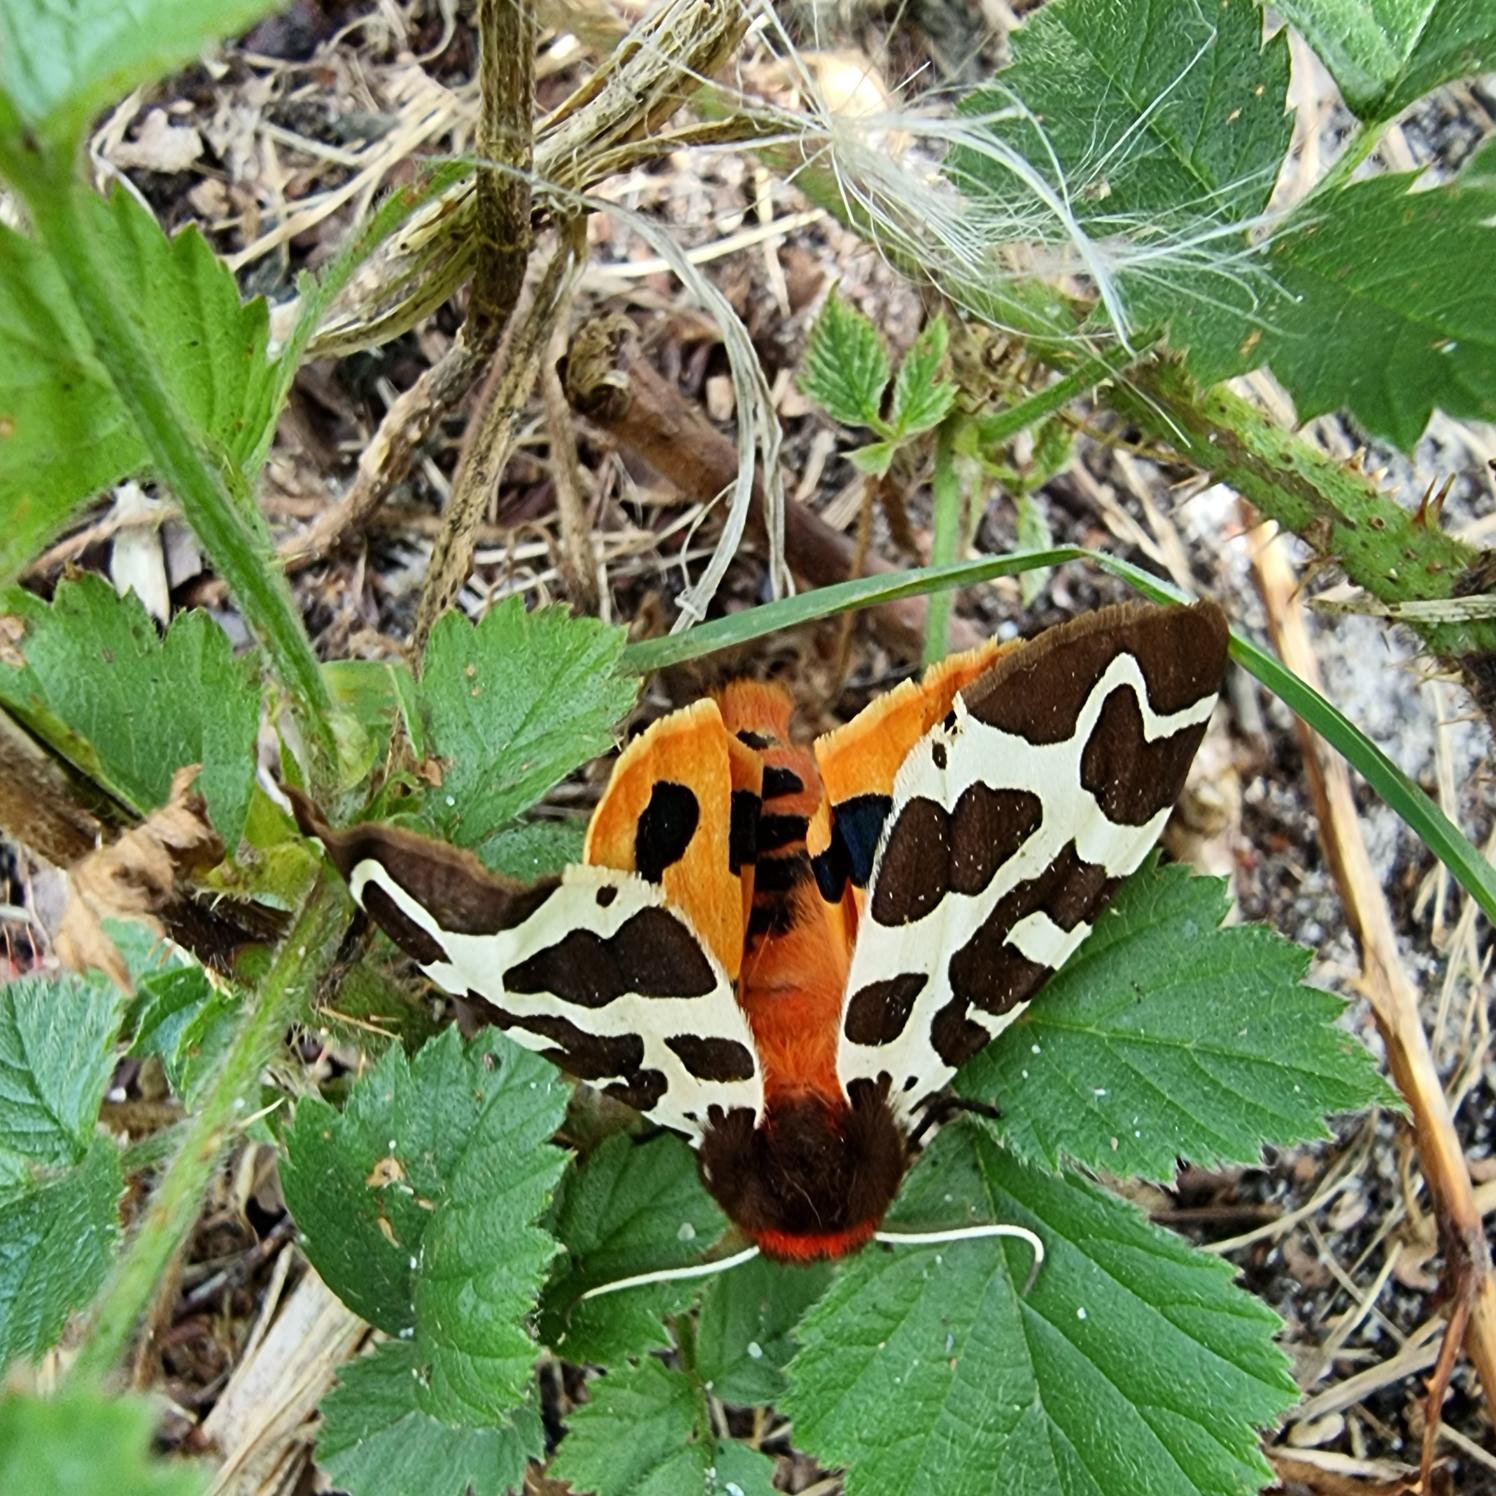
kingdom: Animalia
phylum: Arthropoda
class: Insecta
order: Lepidoptera
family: Erebidae
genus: Arctia
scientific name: Arctia caja
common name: Brun bjørn
